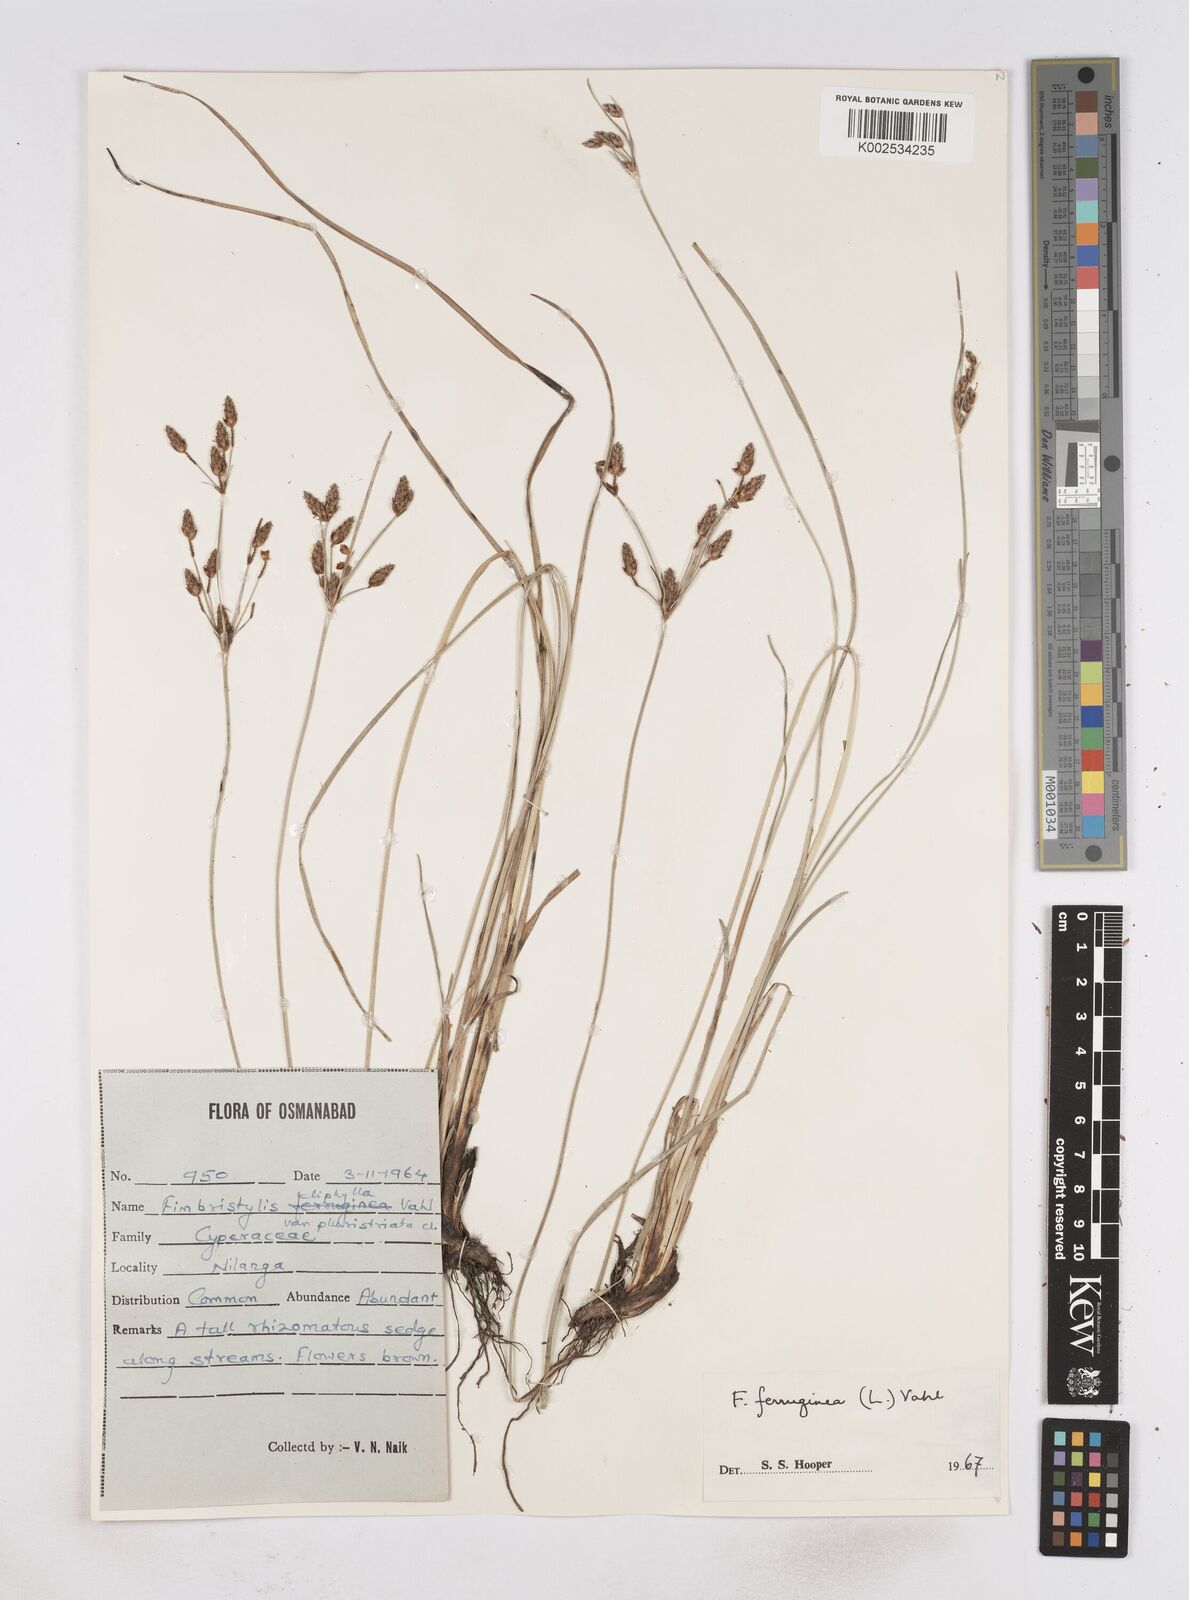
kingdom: Plantae
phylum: Tracheophyta
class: Liliopsida
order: Poales
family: Cyperaceae
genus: Fimbristylis
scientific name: Fimbristylis ferruginea
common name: West indian fimbry
